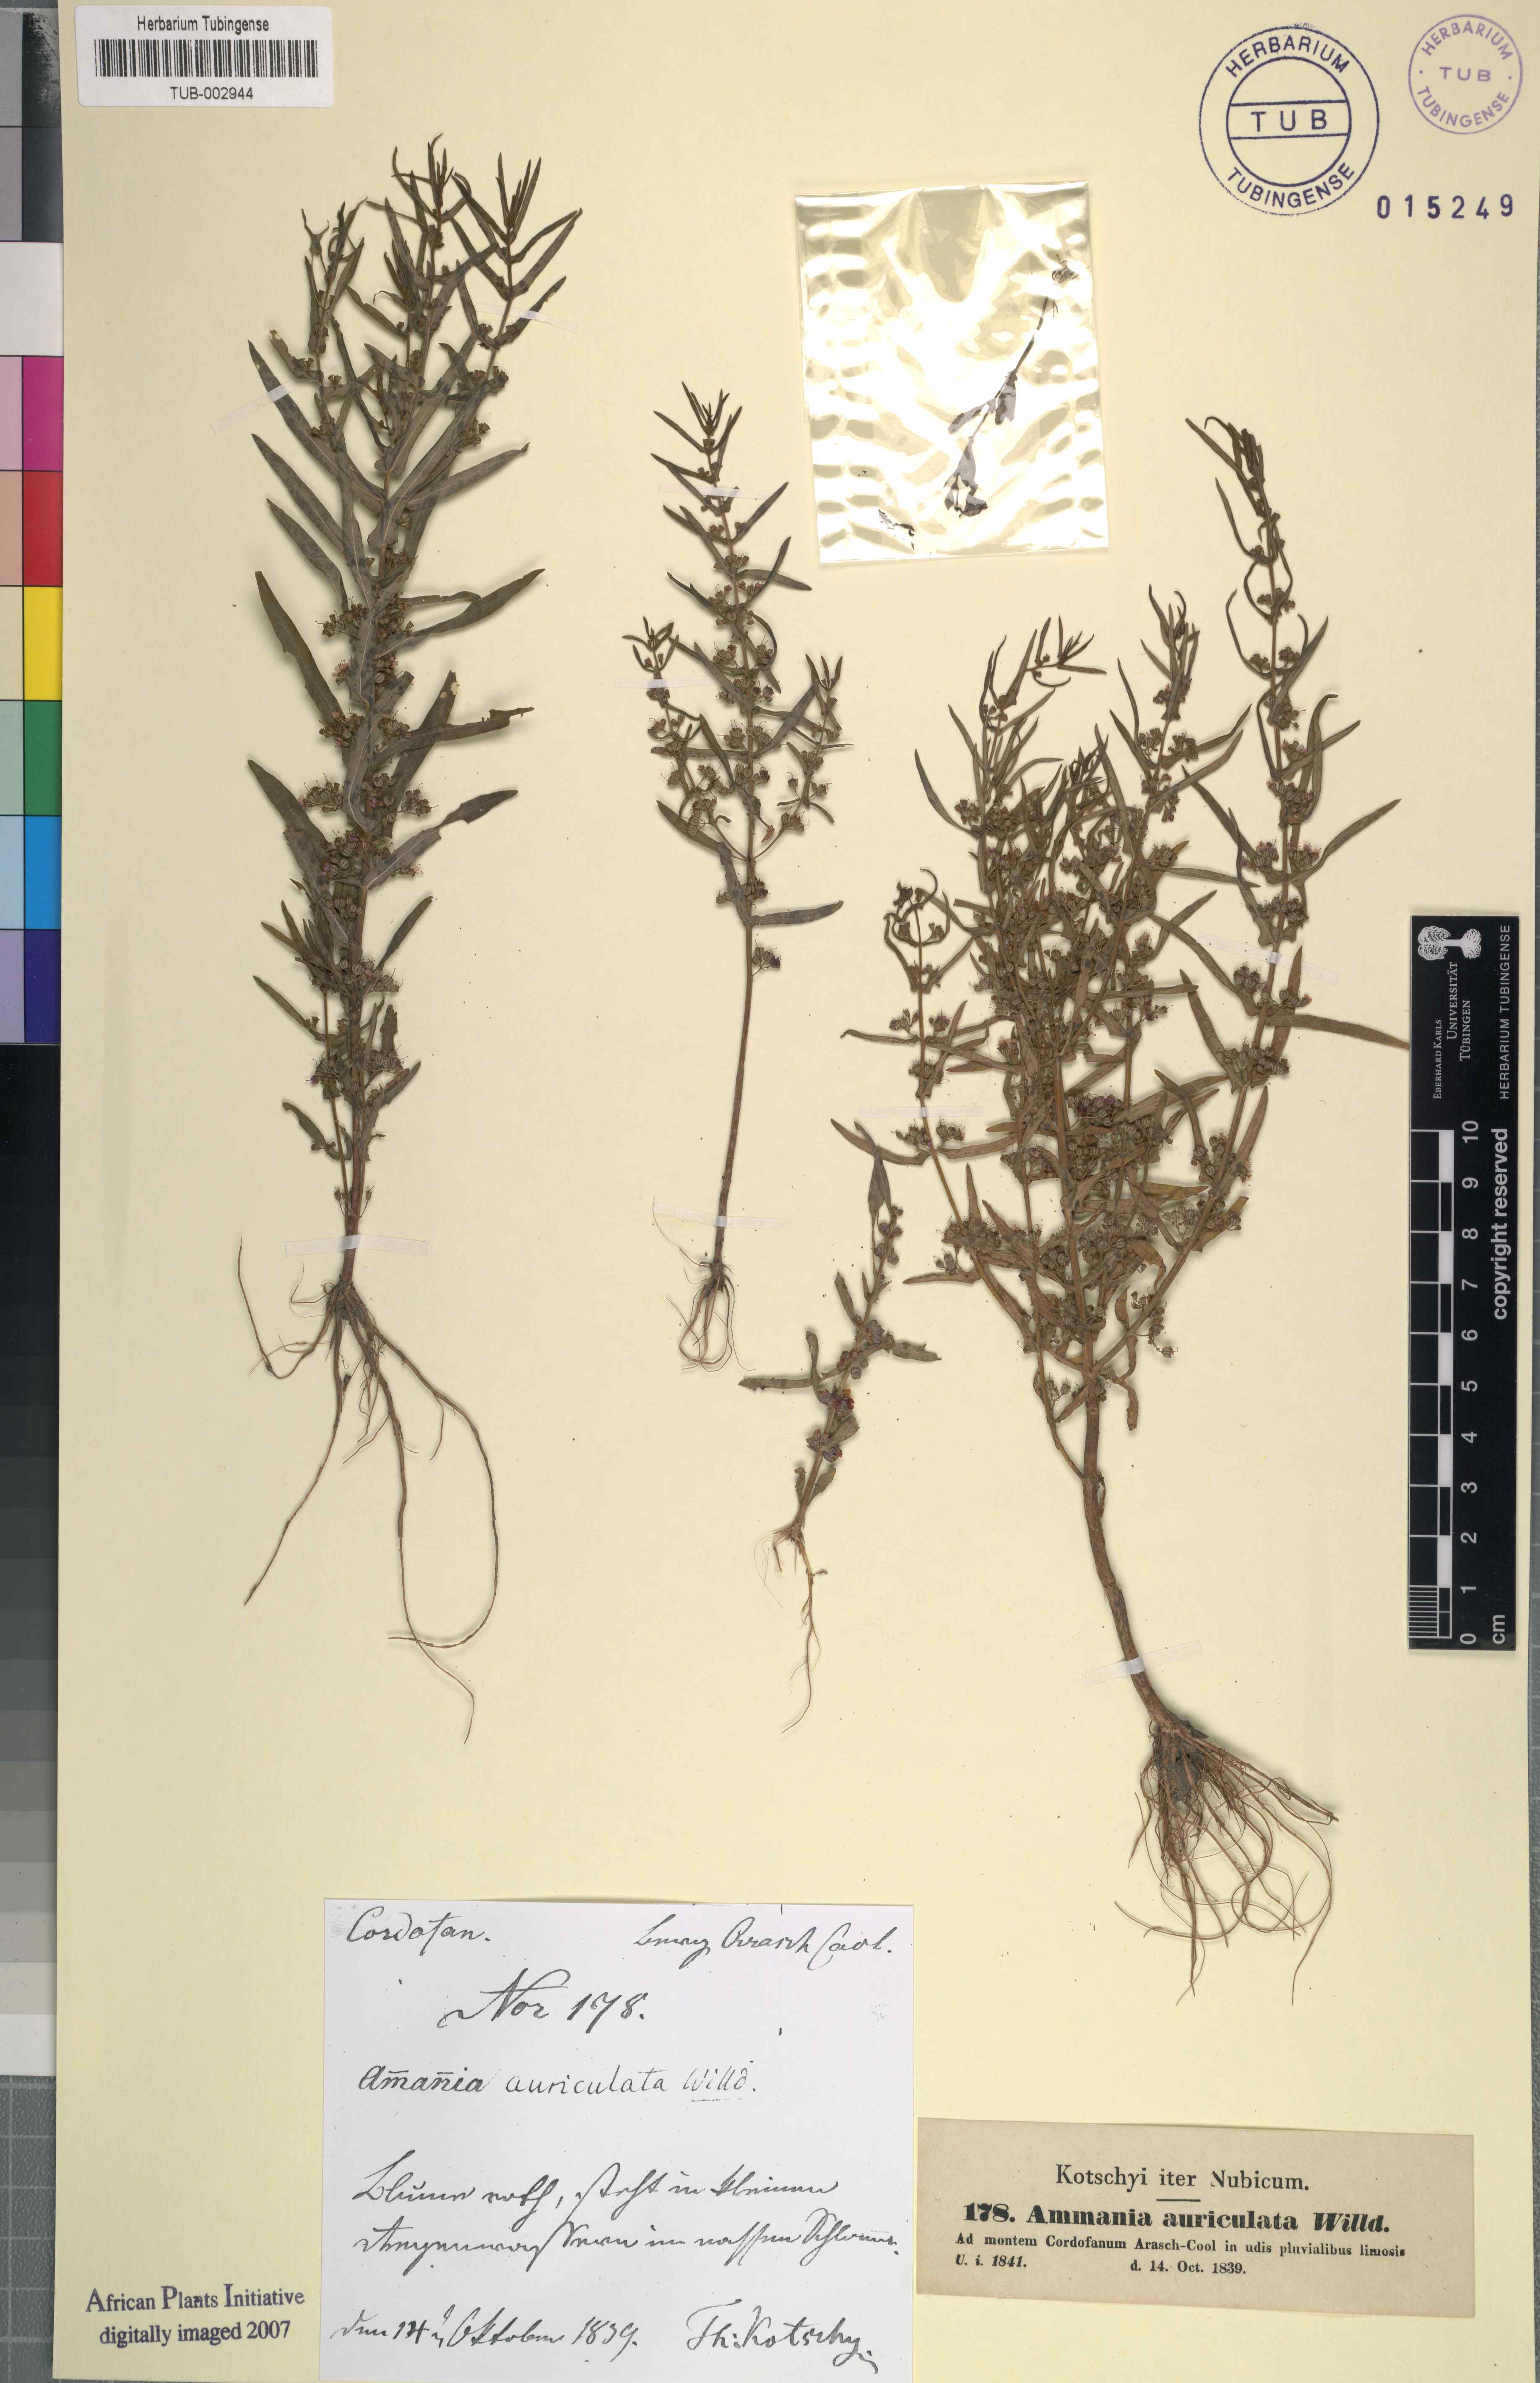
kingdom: Plantae
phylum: Tracheophyta
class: Magnoliopsida
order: Myrtales
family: Lythraceae
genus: Ammannia
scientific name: Ammannia auriculata
